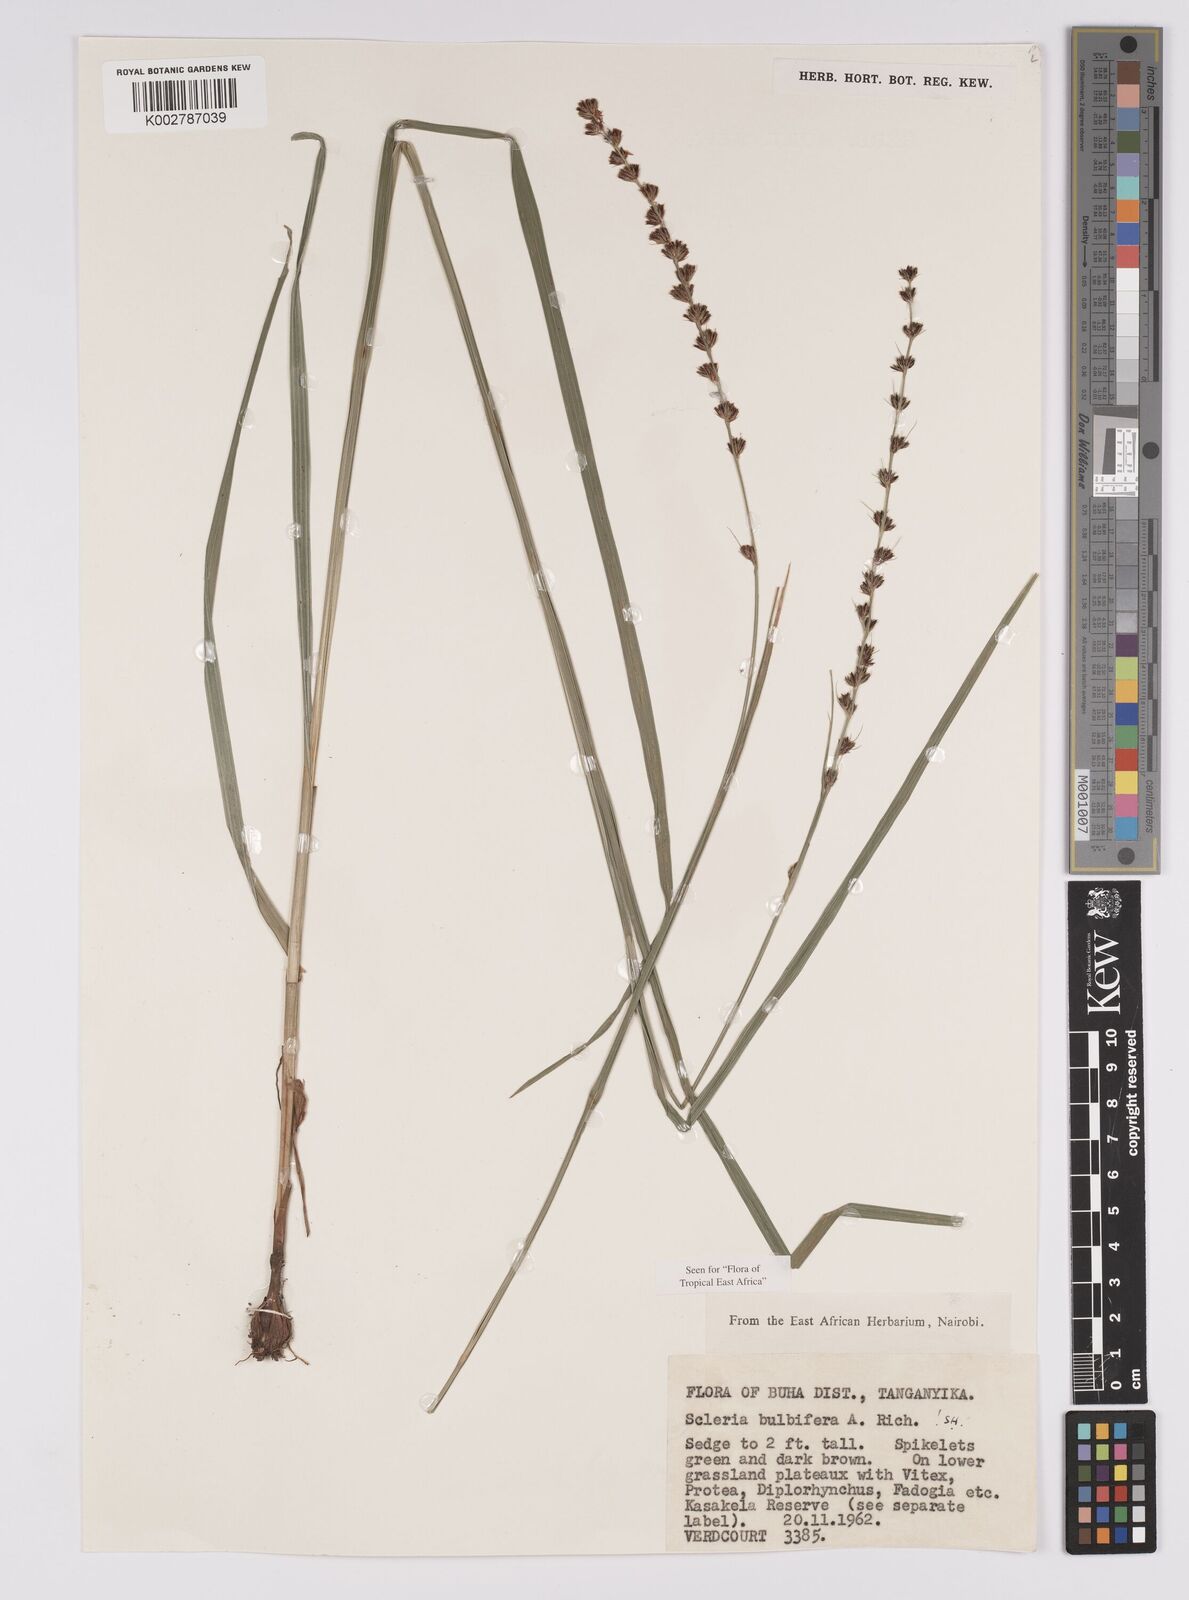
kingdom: Plantae
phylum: Tracheophyta
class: Liliopsida
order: Poales
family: Cyperaceae
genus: Scleria
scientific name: Scleria bulbifera
